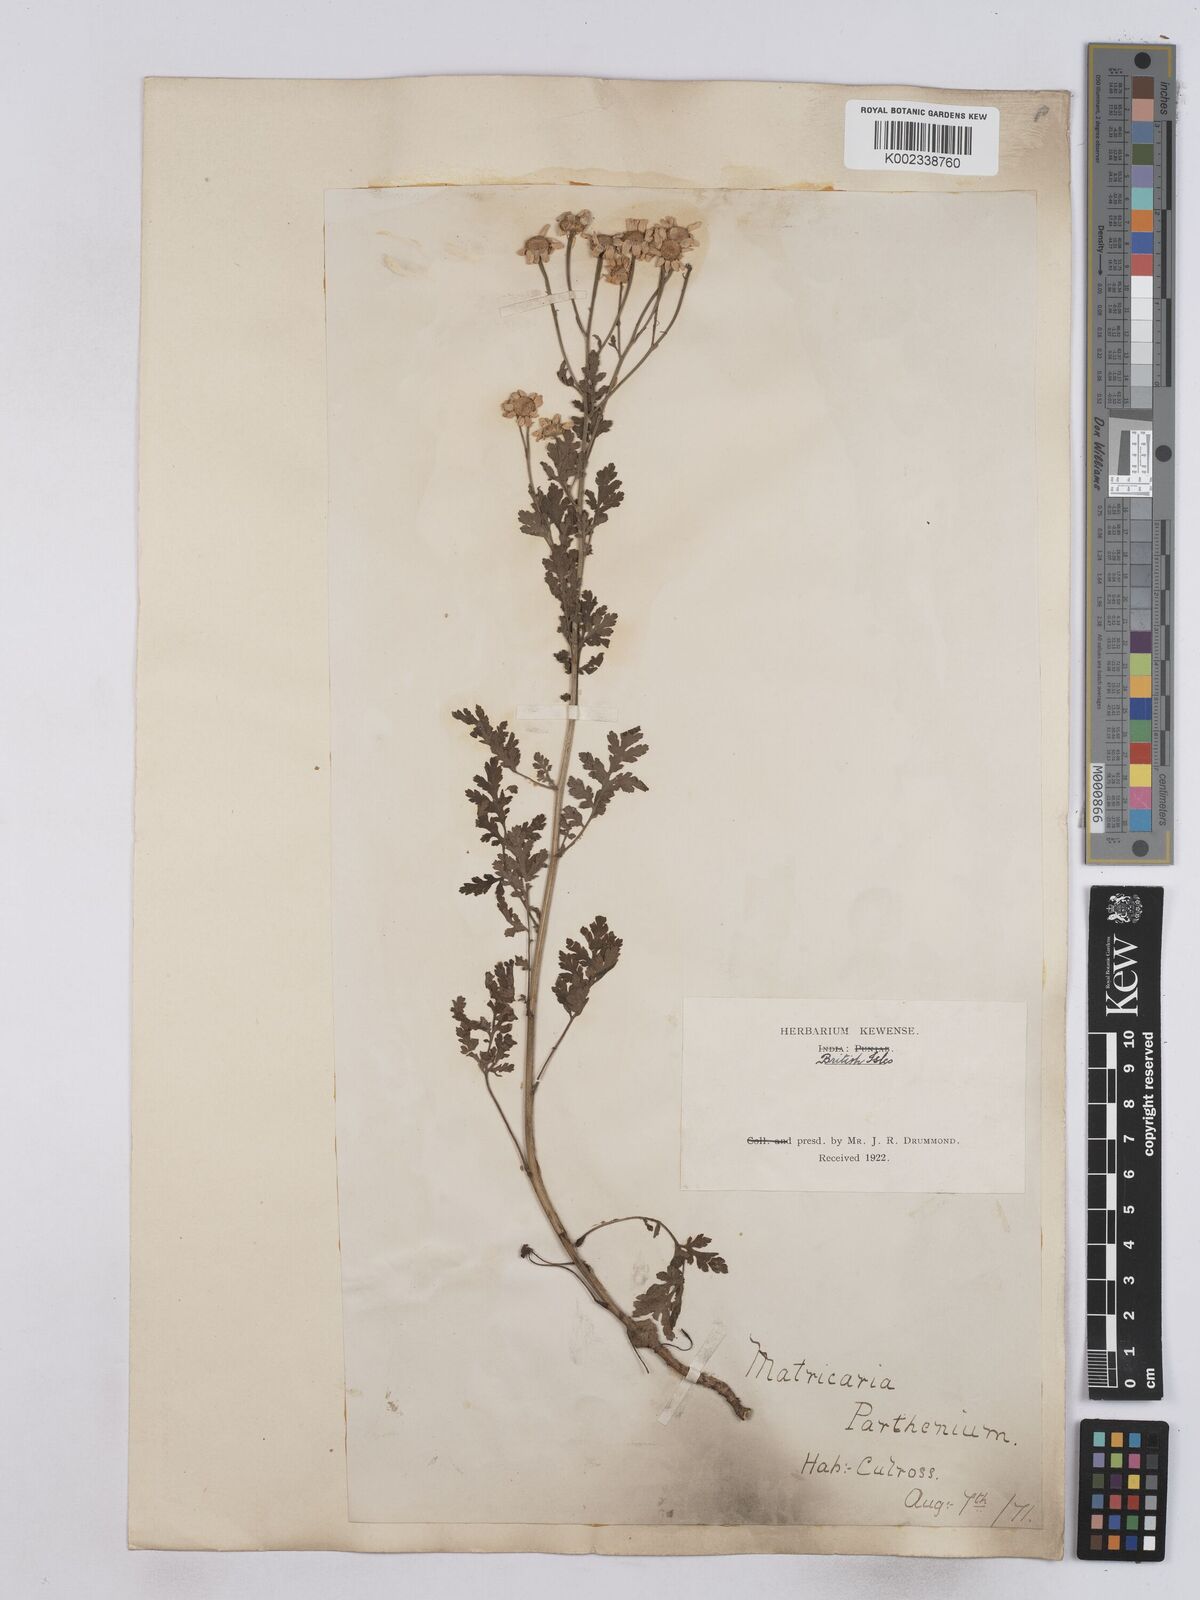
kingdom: Plantae
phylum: Tracheophyta
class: Magnoliopsida
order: Asterales
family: Asteraceae
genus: Tanacetum
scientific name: Tanacetum parthenium
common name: Feverfew
